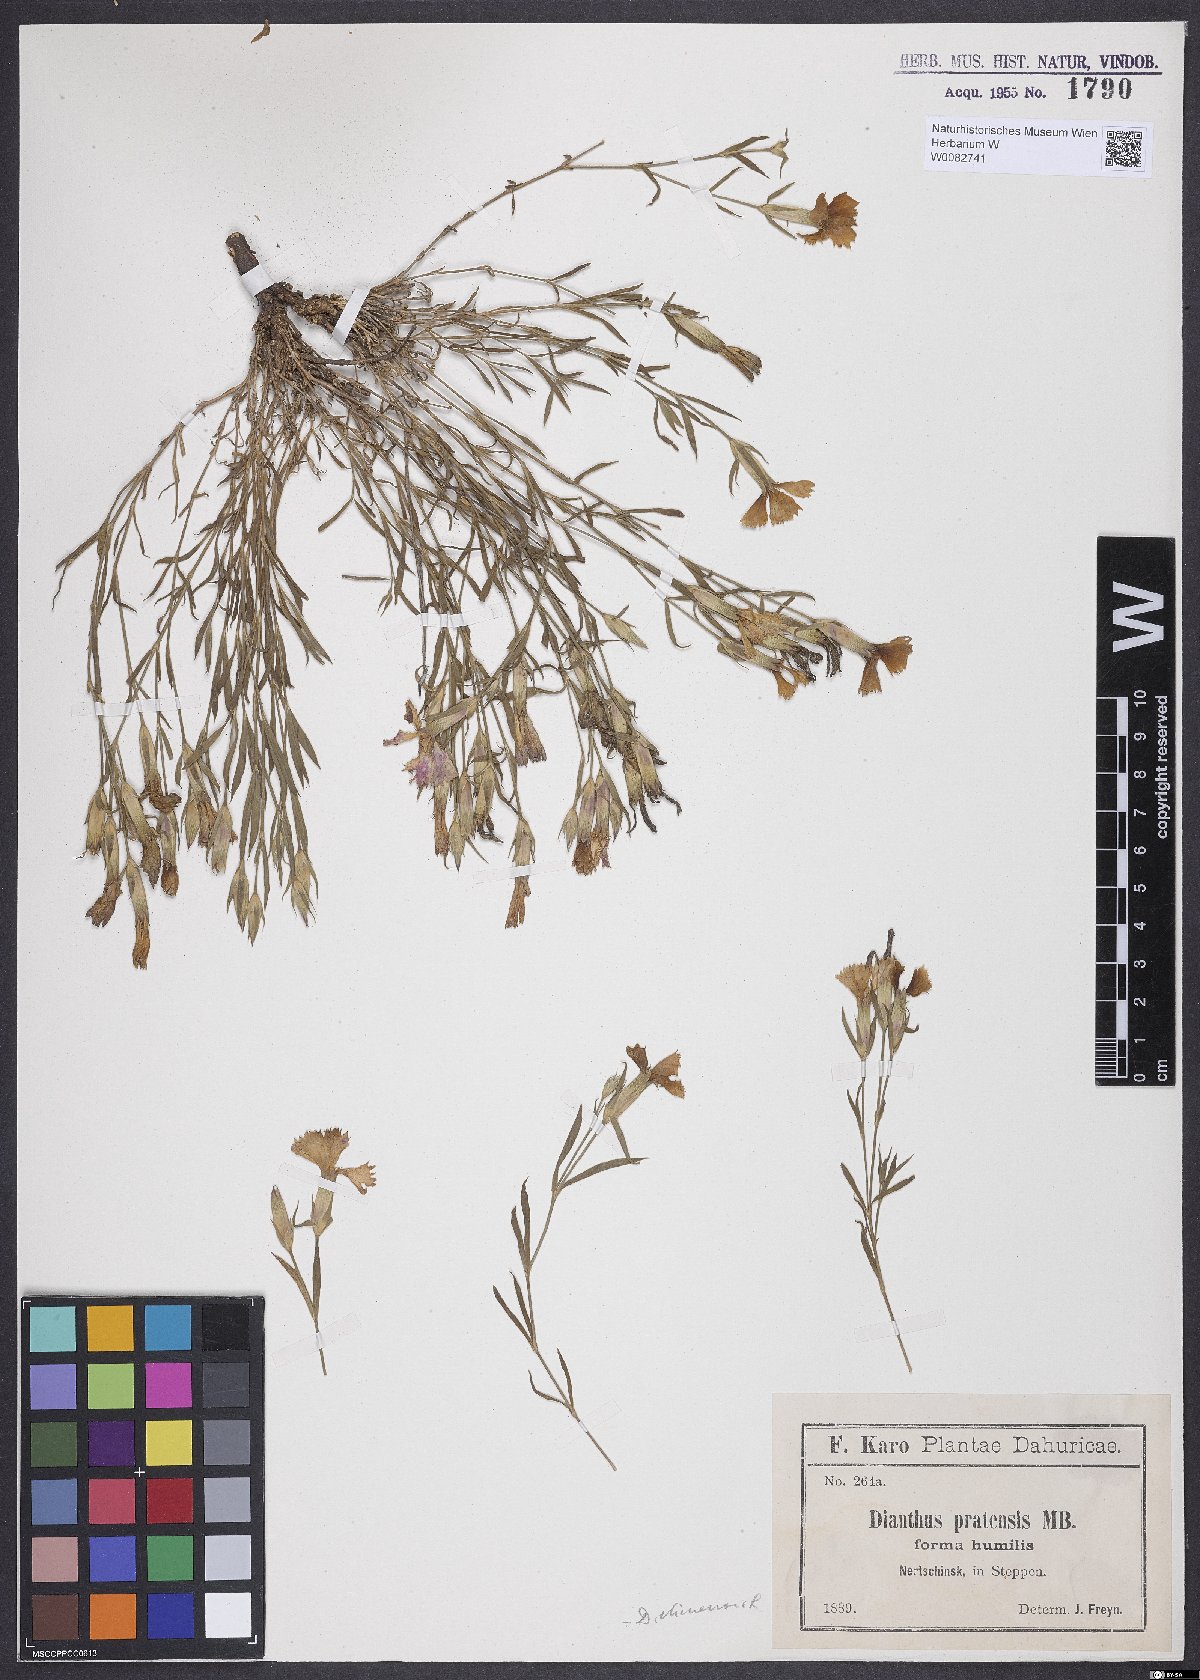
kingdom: Plantae
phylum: Tracheophyta
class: Magnoliopsida
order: Caryophyllales
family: Caryophyllaceae
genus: Dianthus
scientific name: Dianthus chinensis
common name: Rainbow pink
